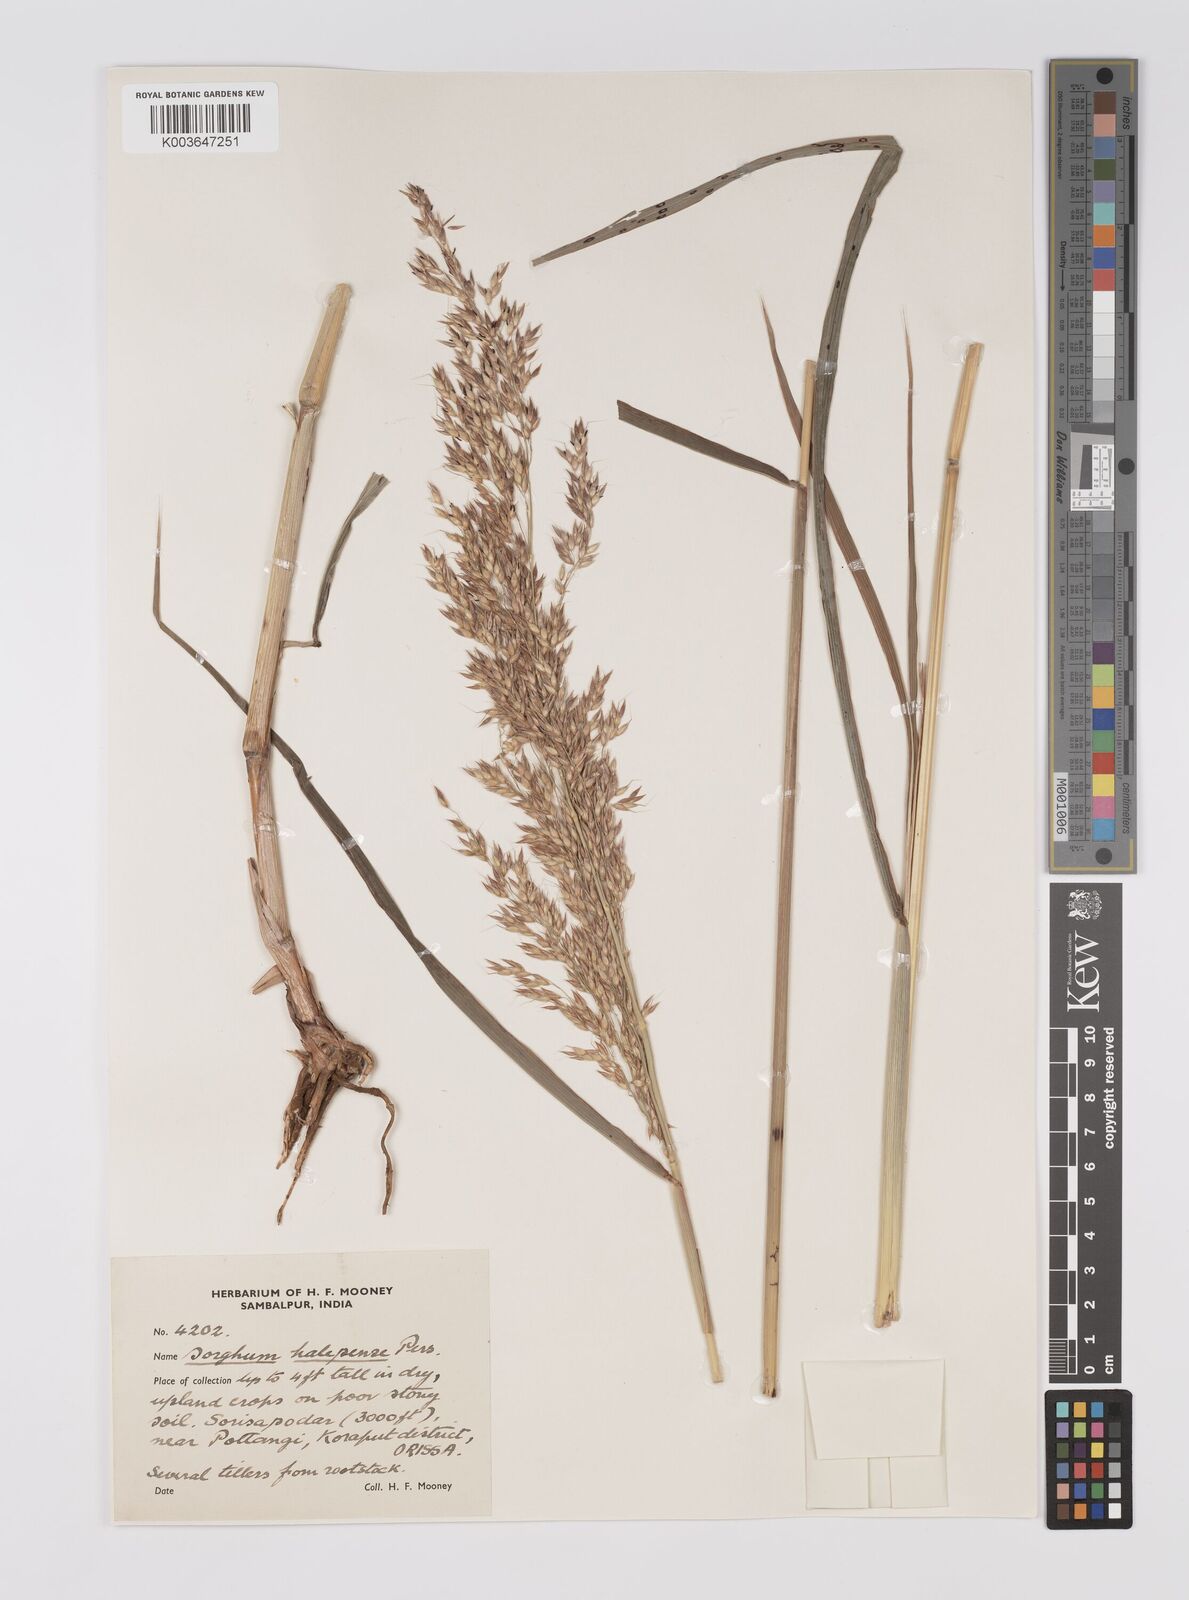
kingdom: Plantae
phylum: Tracheophyta
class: Liliopsida
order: Poales
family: Poaceae
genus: Sorghum
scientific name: Sorghum halepense
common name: Johnson-grass
